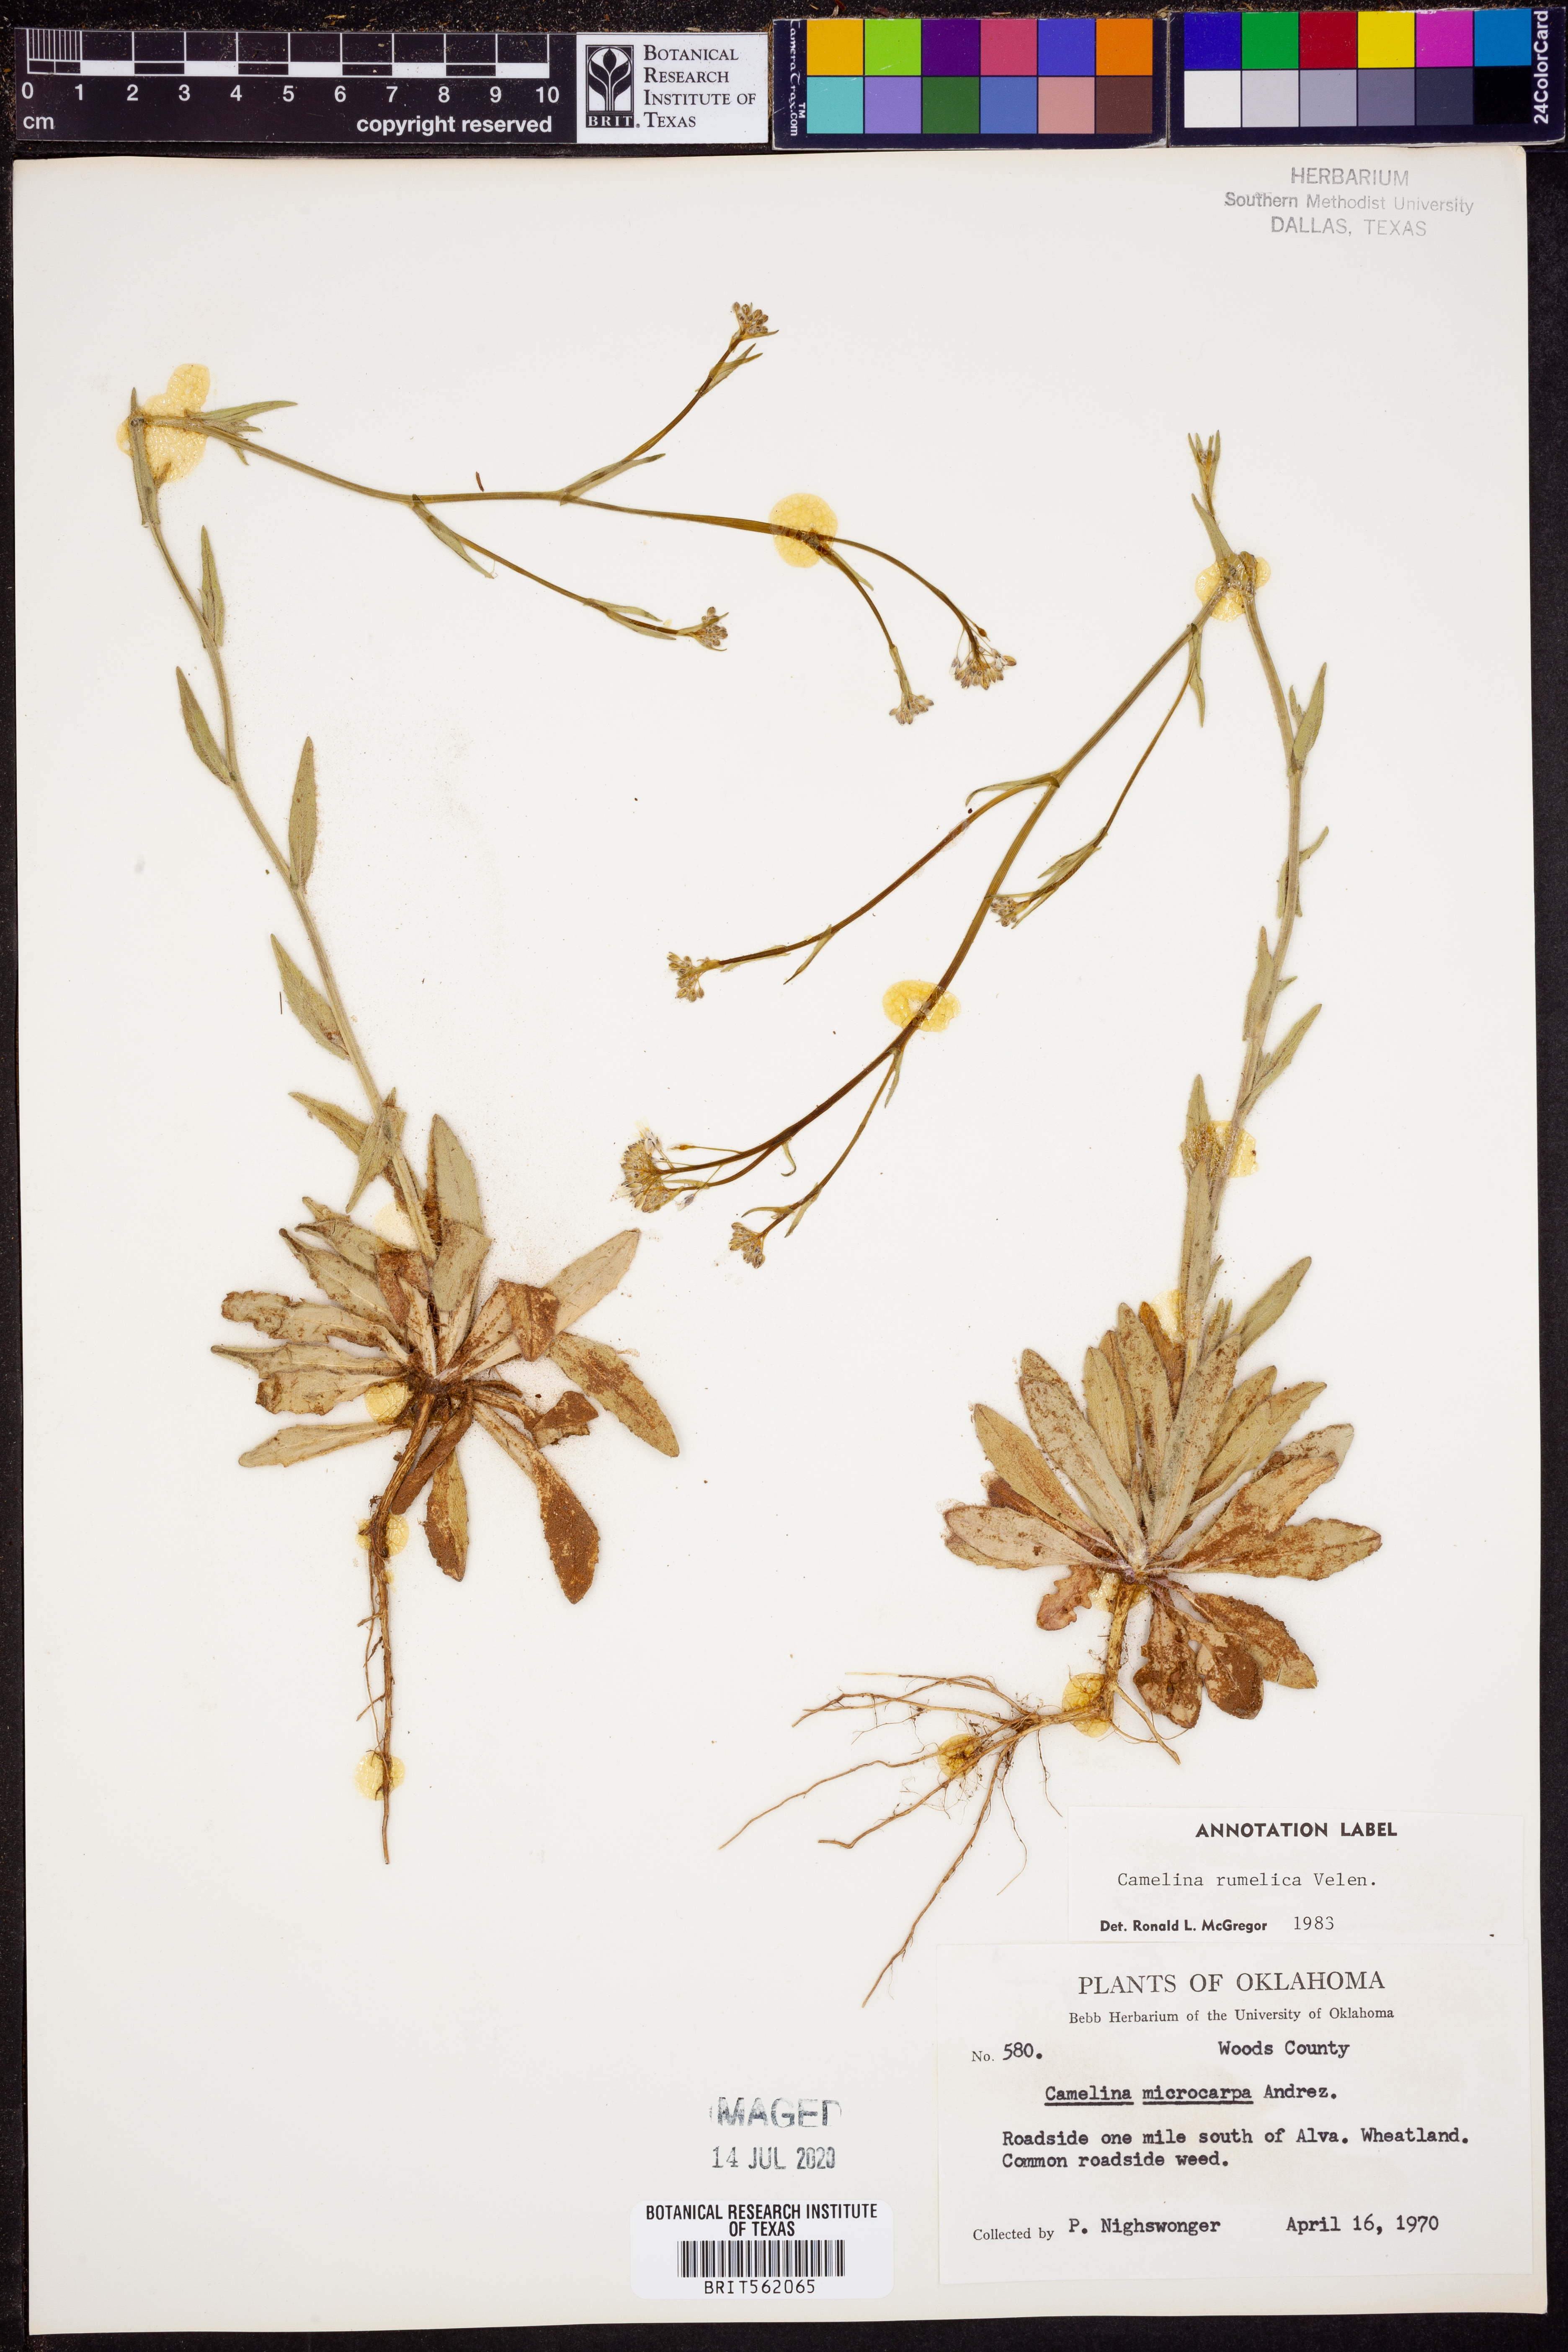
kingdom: Plantae
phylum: Tracheophyta
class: Magnoliopsida
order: Brassicales
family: Brassicaceae
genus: Camelina
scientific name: Camelina rumelica
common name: Graceful false flax
